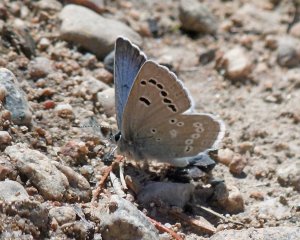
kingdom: Animalia
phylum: Arthropoda
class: Insecta
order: Lepidoptera
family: Lycaenidae
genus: Icaricia
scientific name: Icaricia icarioides
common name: Boisduval's Blue
